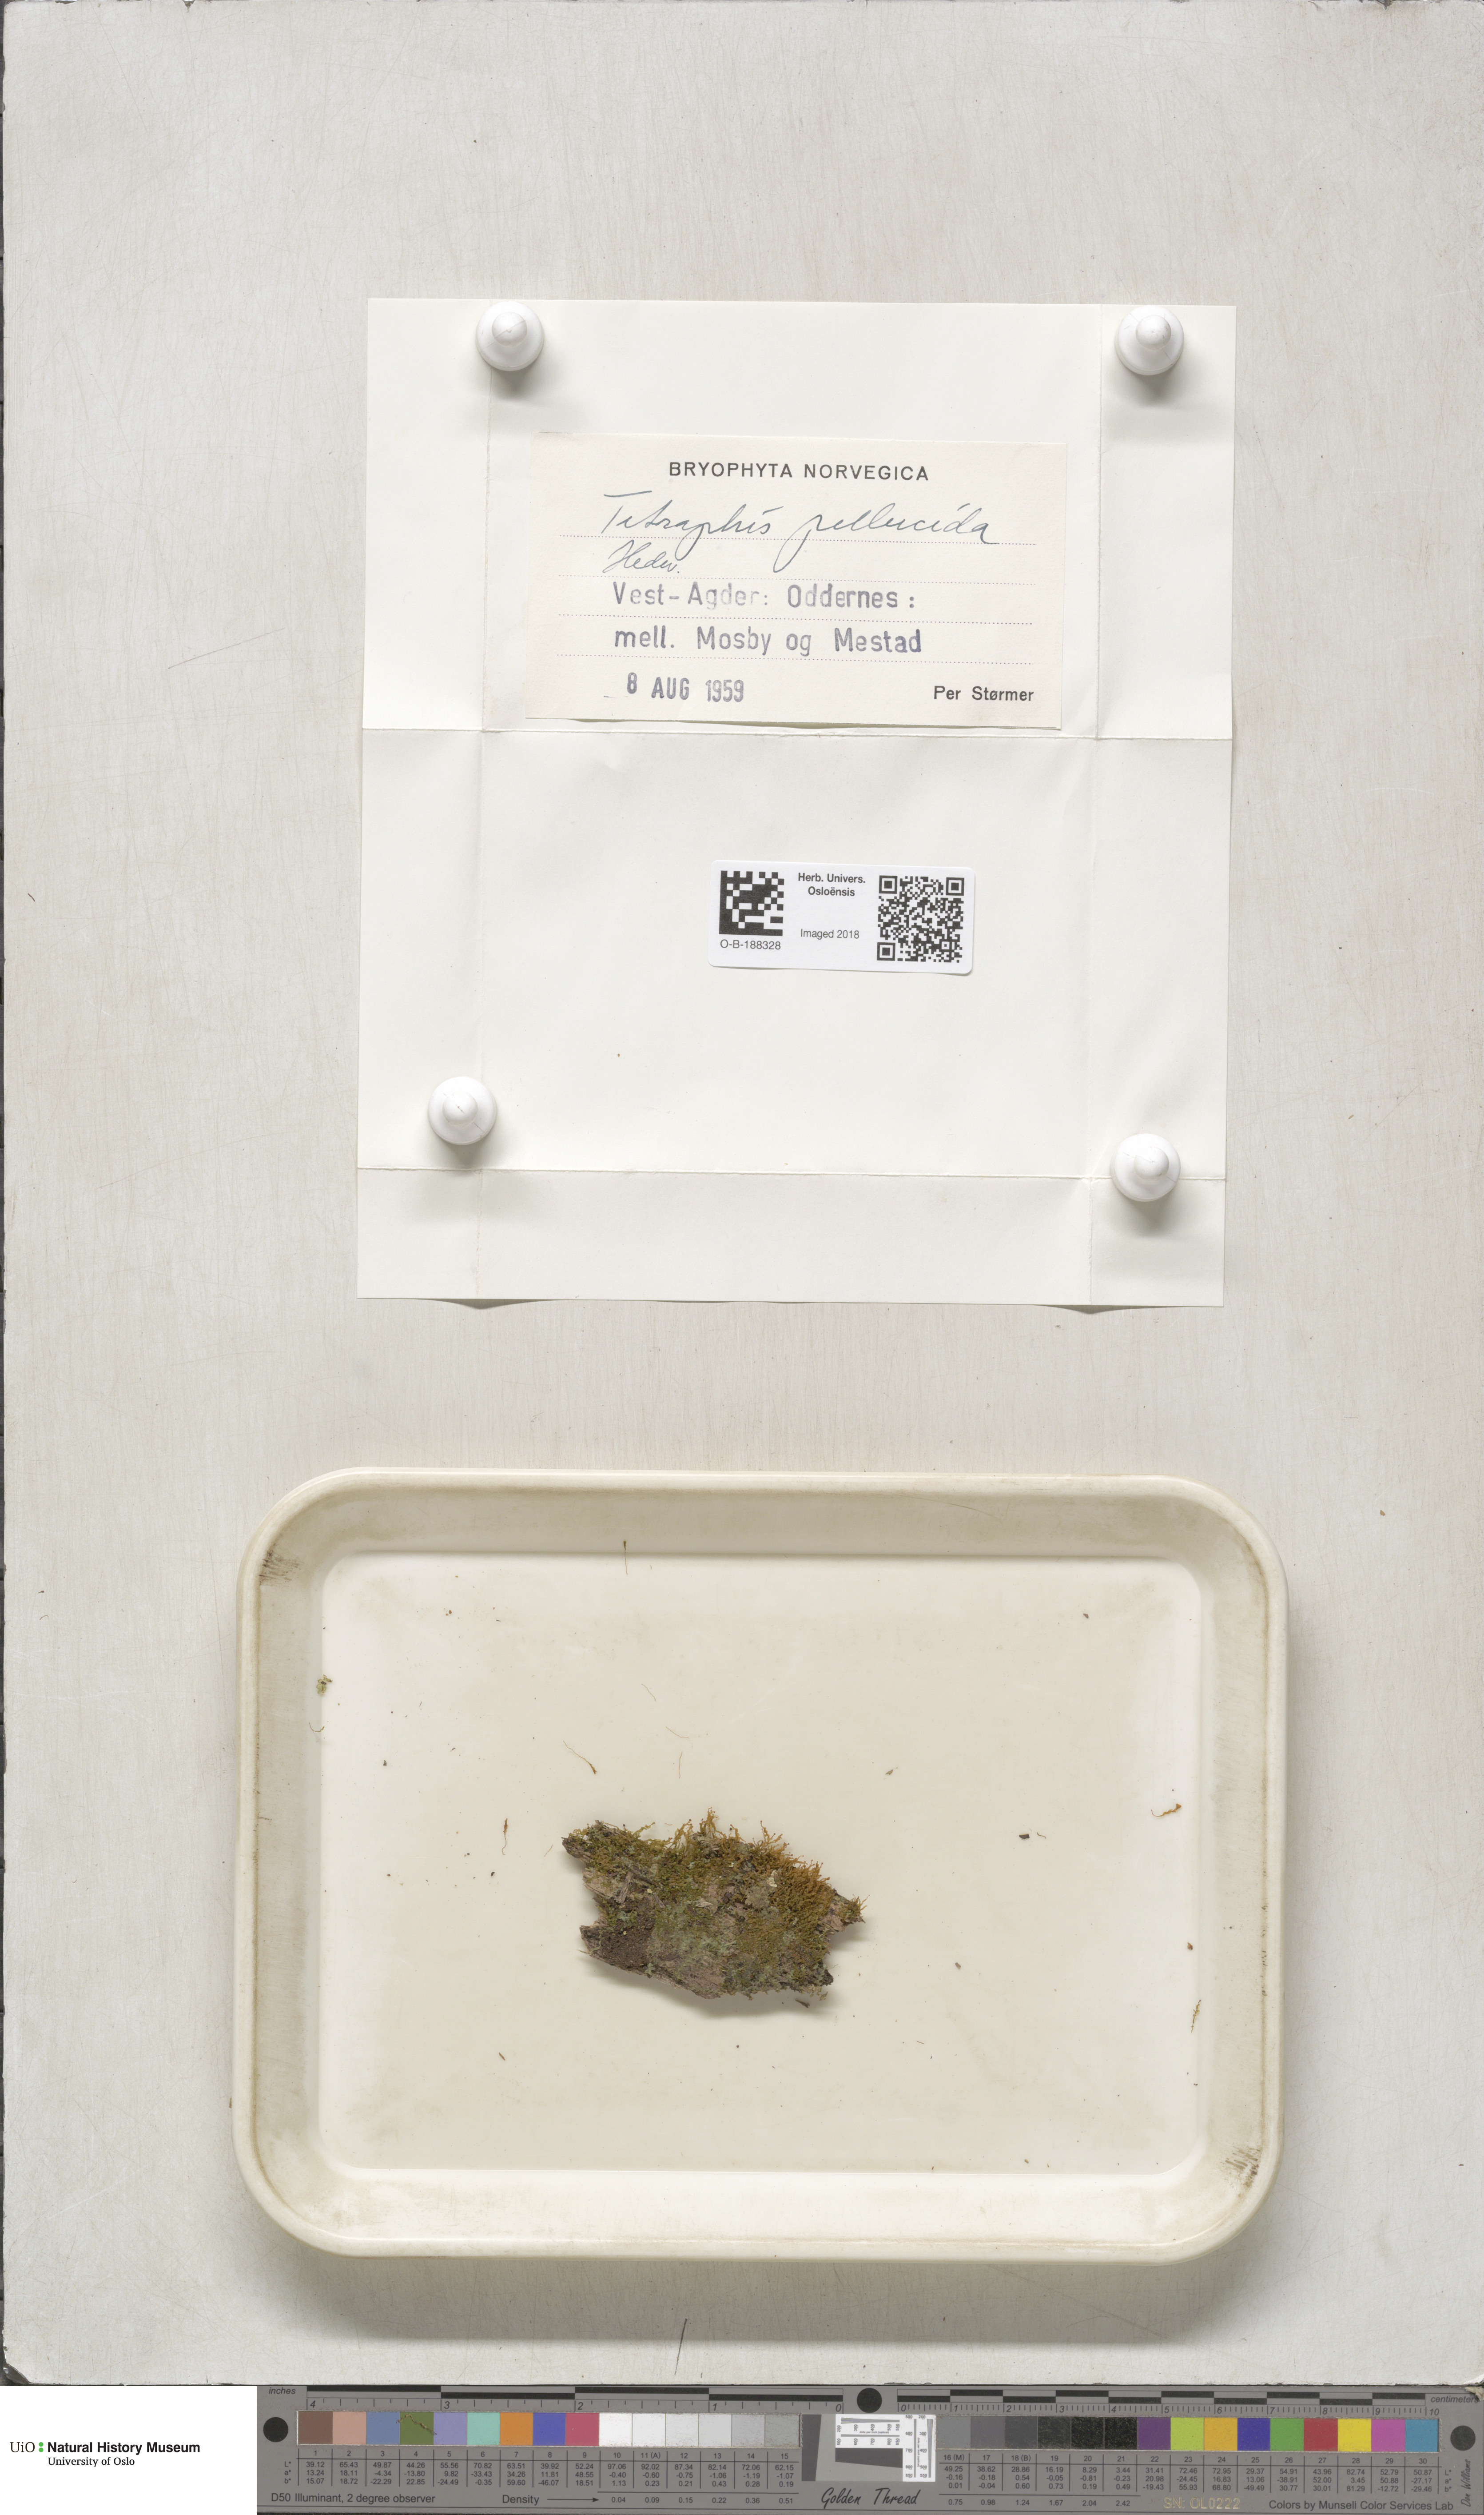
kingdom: Plantae
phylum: Bryophyta
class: Polytrichopsida
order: Tetraphidales
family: Tetraphidaceae
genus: Tetraphis
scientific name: Tetraphis pellucida
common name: Common four-toothed moss
